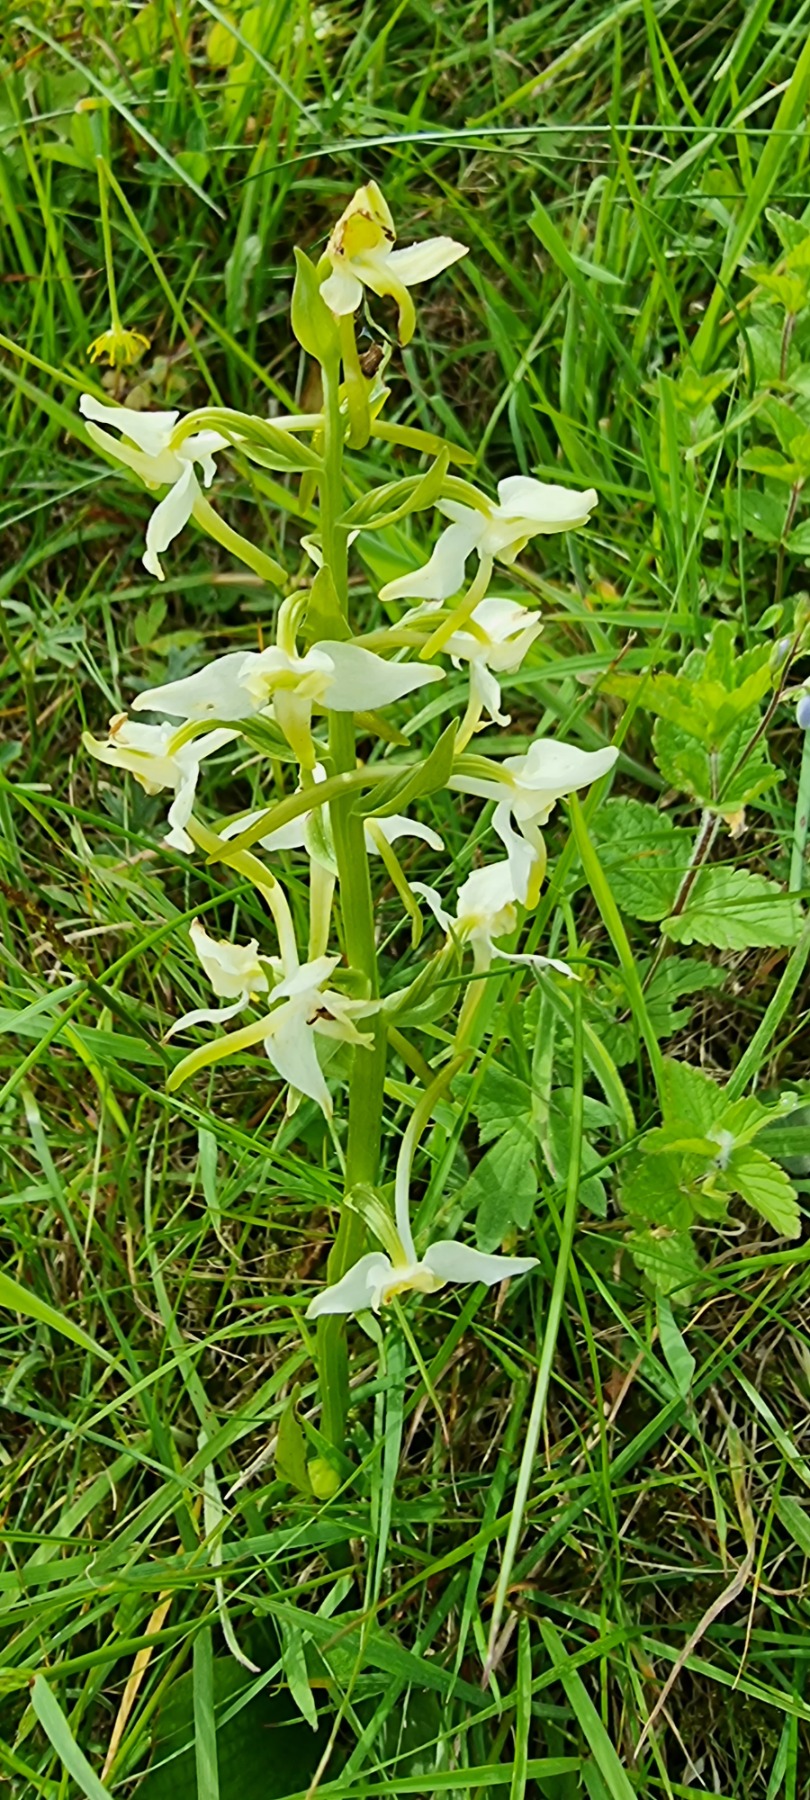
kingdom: Plantae
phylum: Tracheophyta
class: Liliopsida
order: Asparagales
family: Orchidaceae
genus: Platanthera
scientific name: Platanthera chlorantha
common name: Skov-gøgelilje
